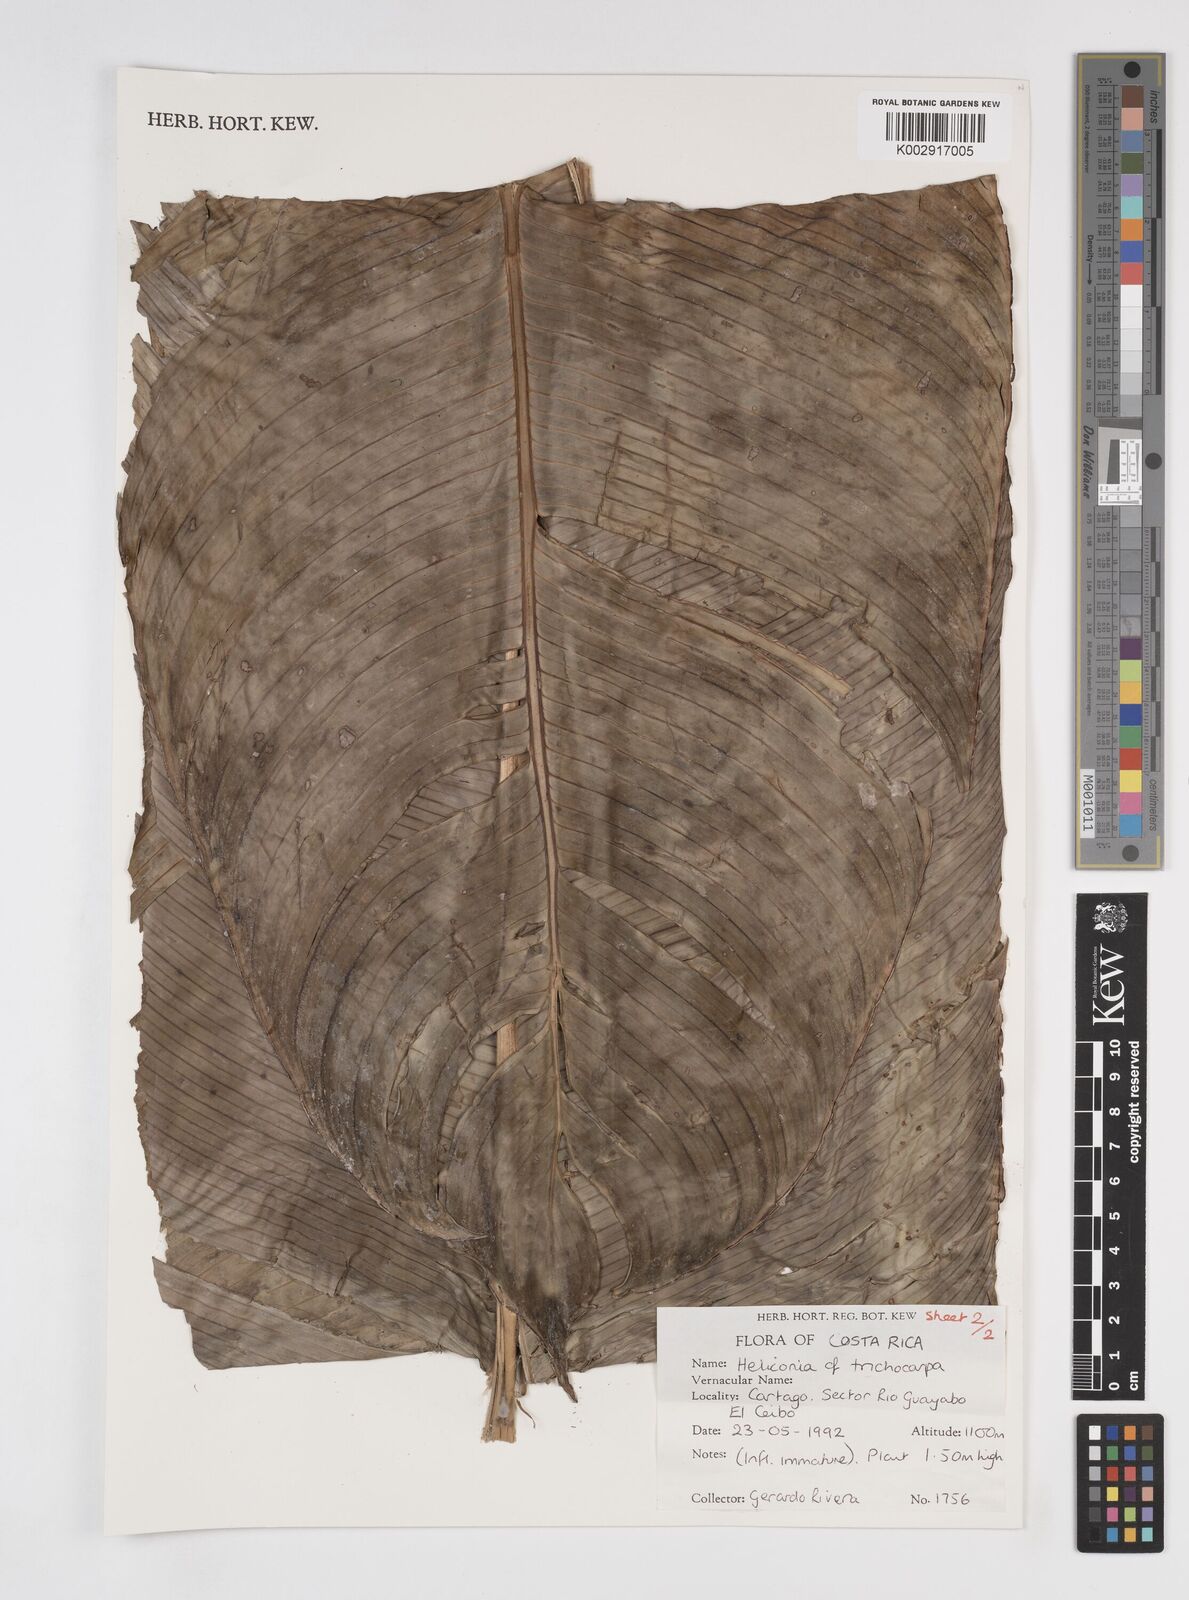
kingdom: Plantae
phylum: Tracheophyta
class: Liliopsida
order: Zingiberales
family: Heliconiaceae
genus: Heliconia
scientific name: Heliconia trichocarpa
